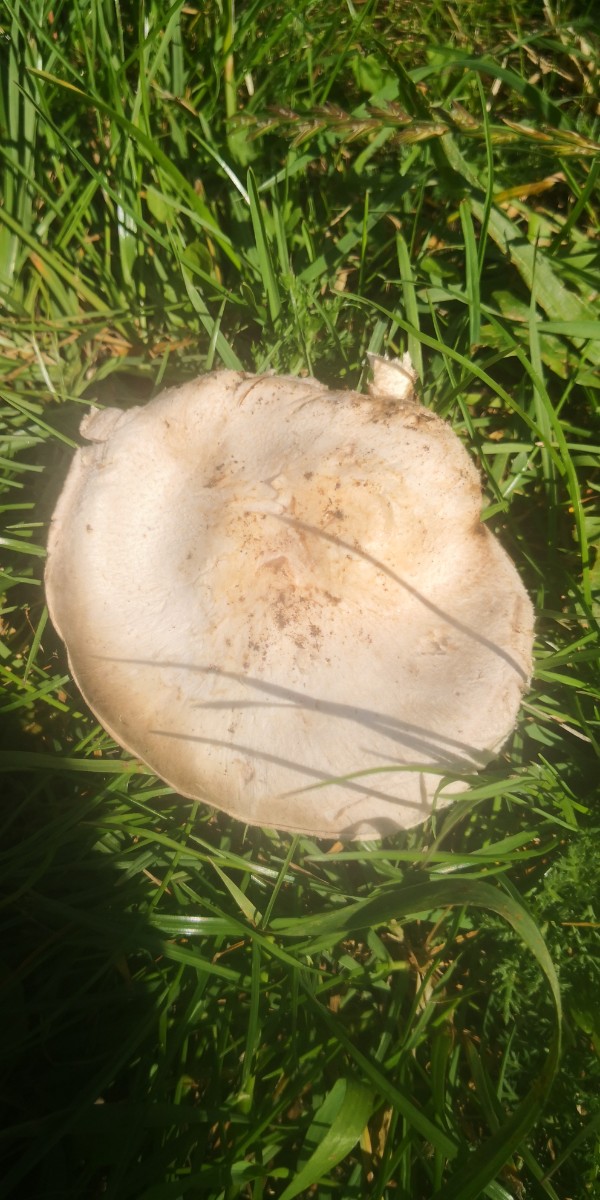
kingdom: Fungi
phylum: Basidiomycota
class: Agaricomycetes
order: Agaricales
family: Agaricaceae
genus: Agaricus
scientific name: Agaricus
